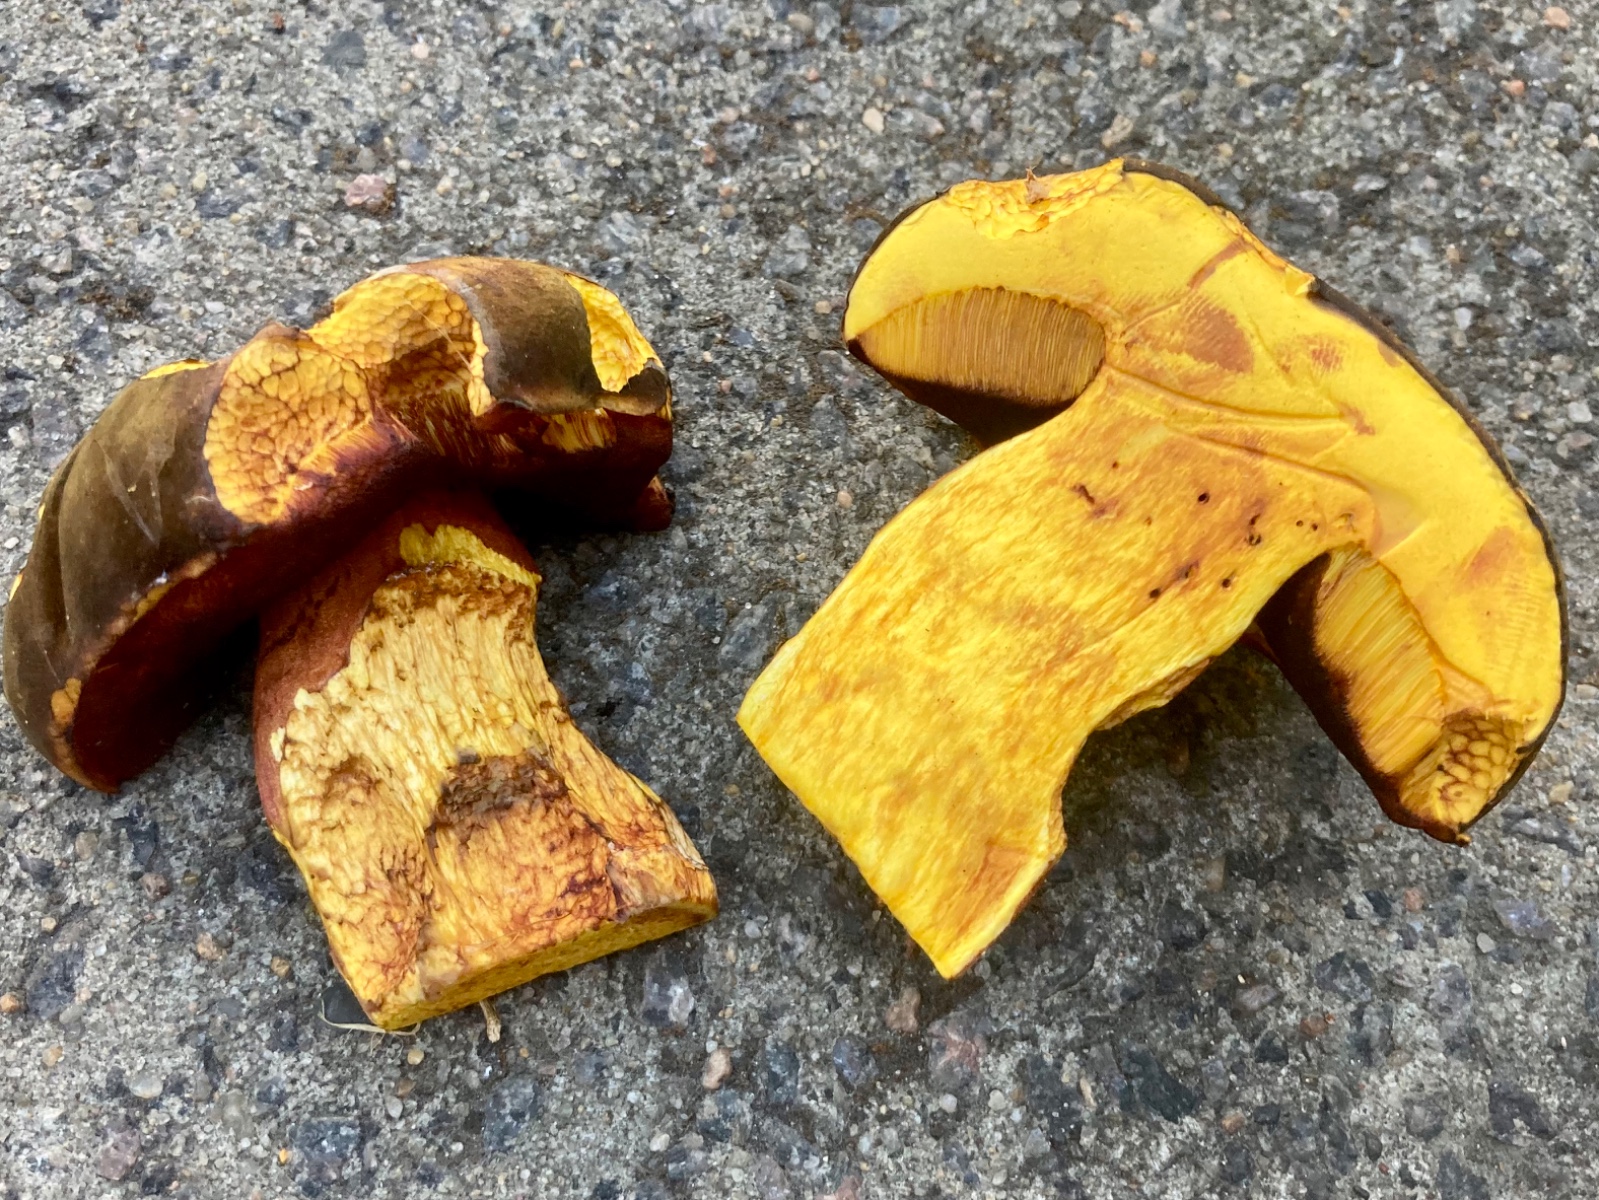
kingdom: Fungi
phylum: Basidiomycota
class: Agaricomycetes
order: Boletales
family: Boletaceae
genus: Neoboletus
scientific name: Neoboletus erythropus
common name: punktstokket indigorørhat
